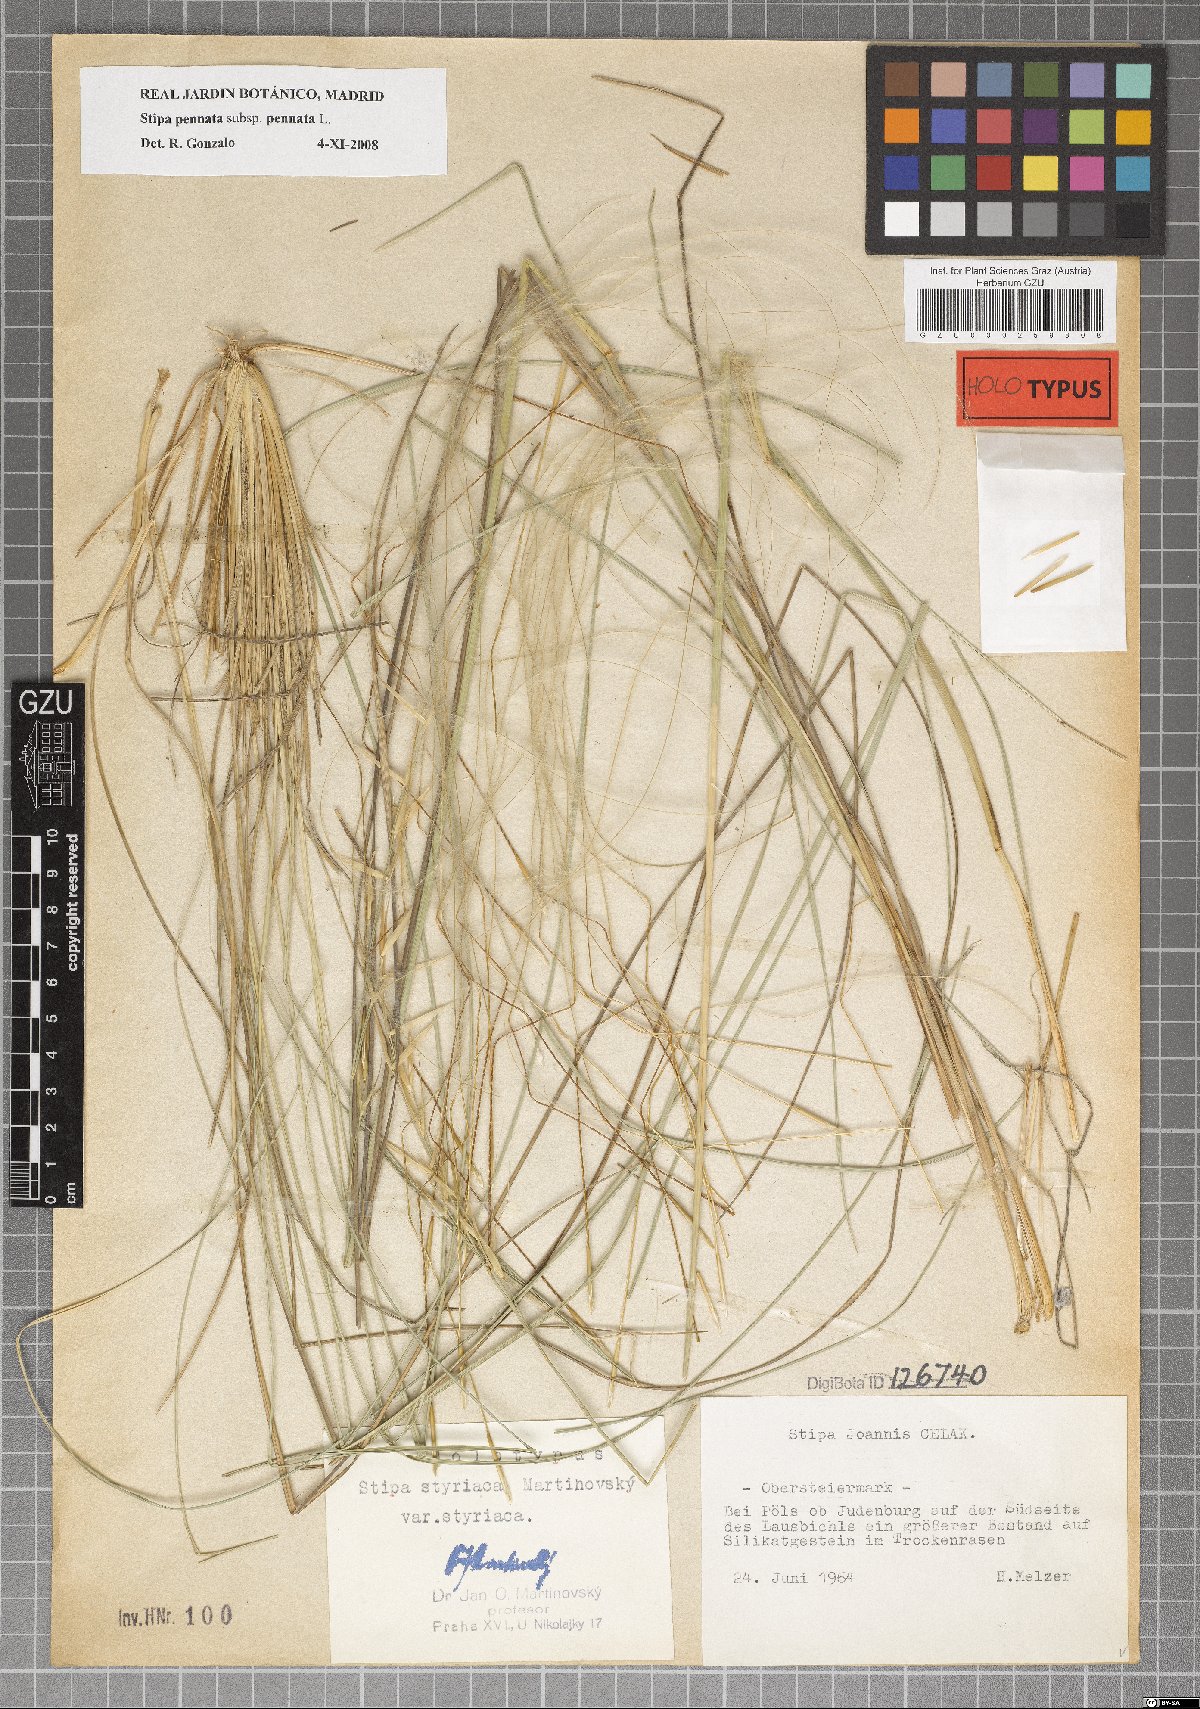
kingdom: Plantae
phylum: Tracheophyta
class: Liliopsida
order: Poales
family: Poaceae
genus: Stipa
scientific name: Stipa pennata
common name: European feather grass
